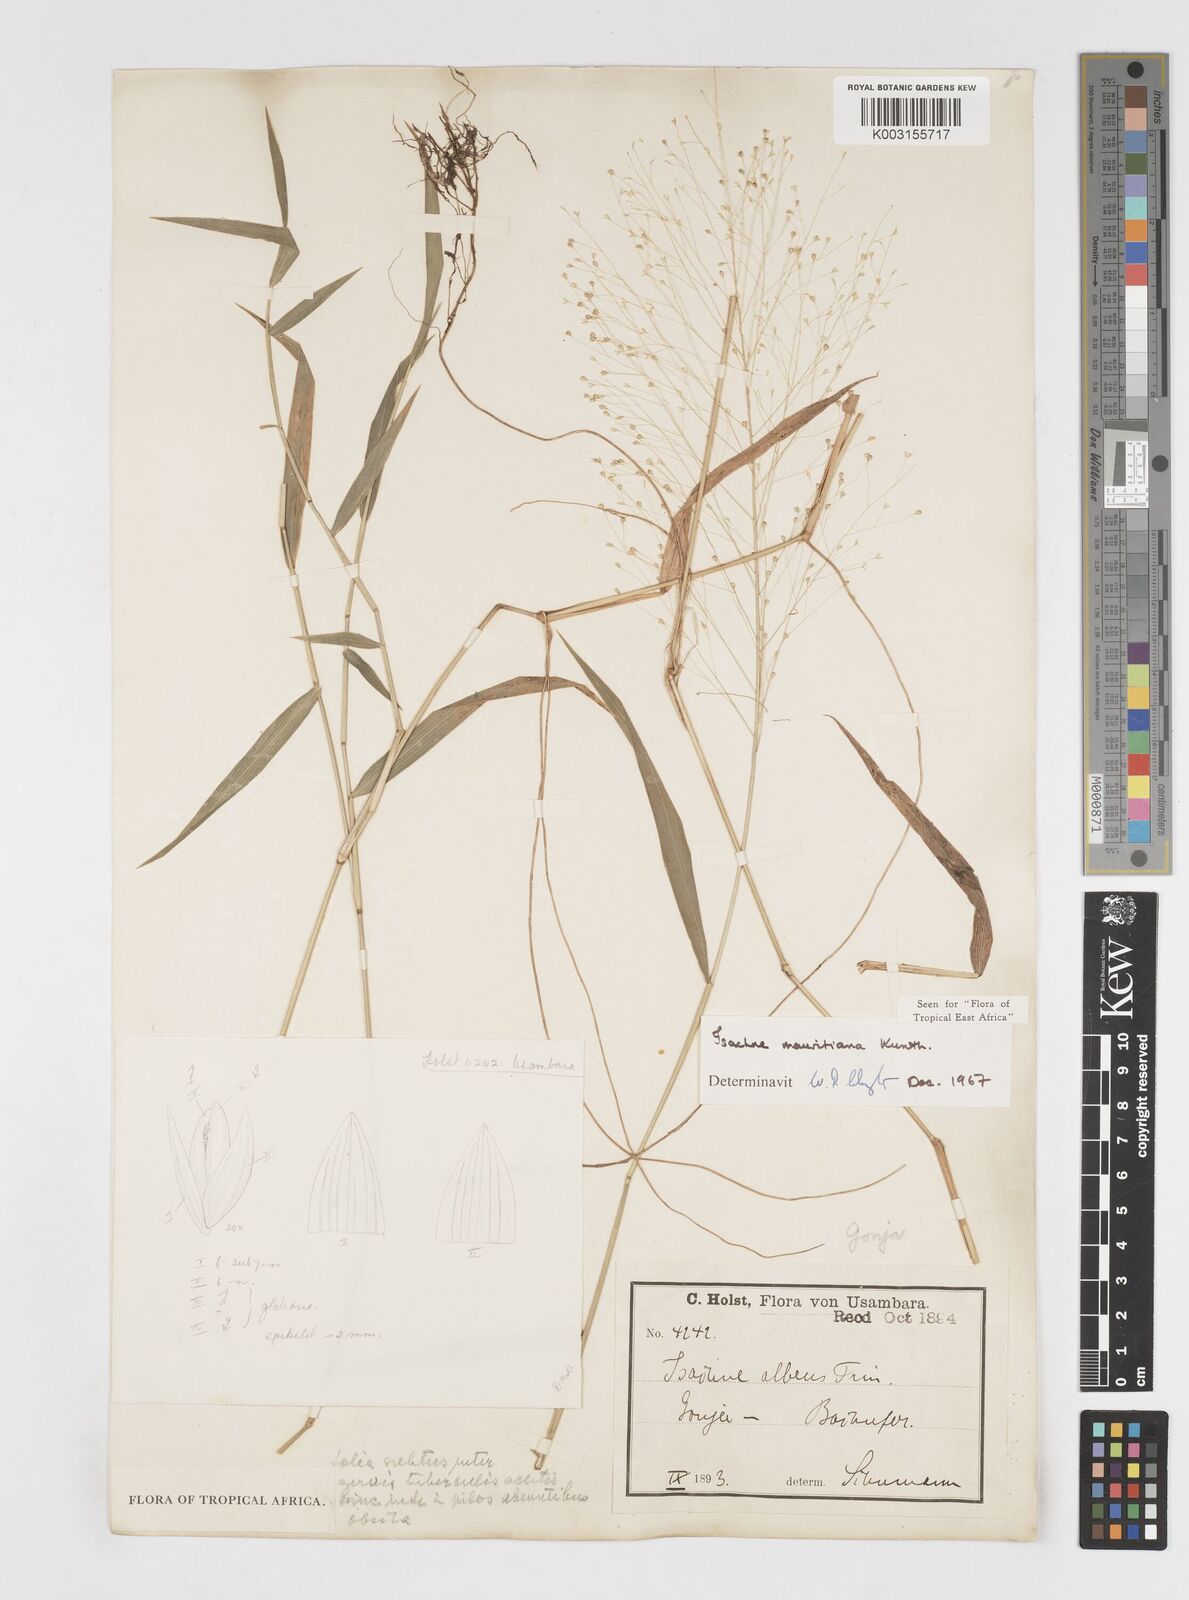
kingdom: Plantae
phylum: Tracheophyta
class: Liliopsida
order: Poales
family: Poaceae
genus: Isachne
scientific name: Isachne mauritiana
